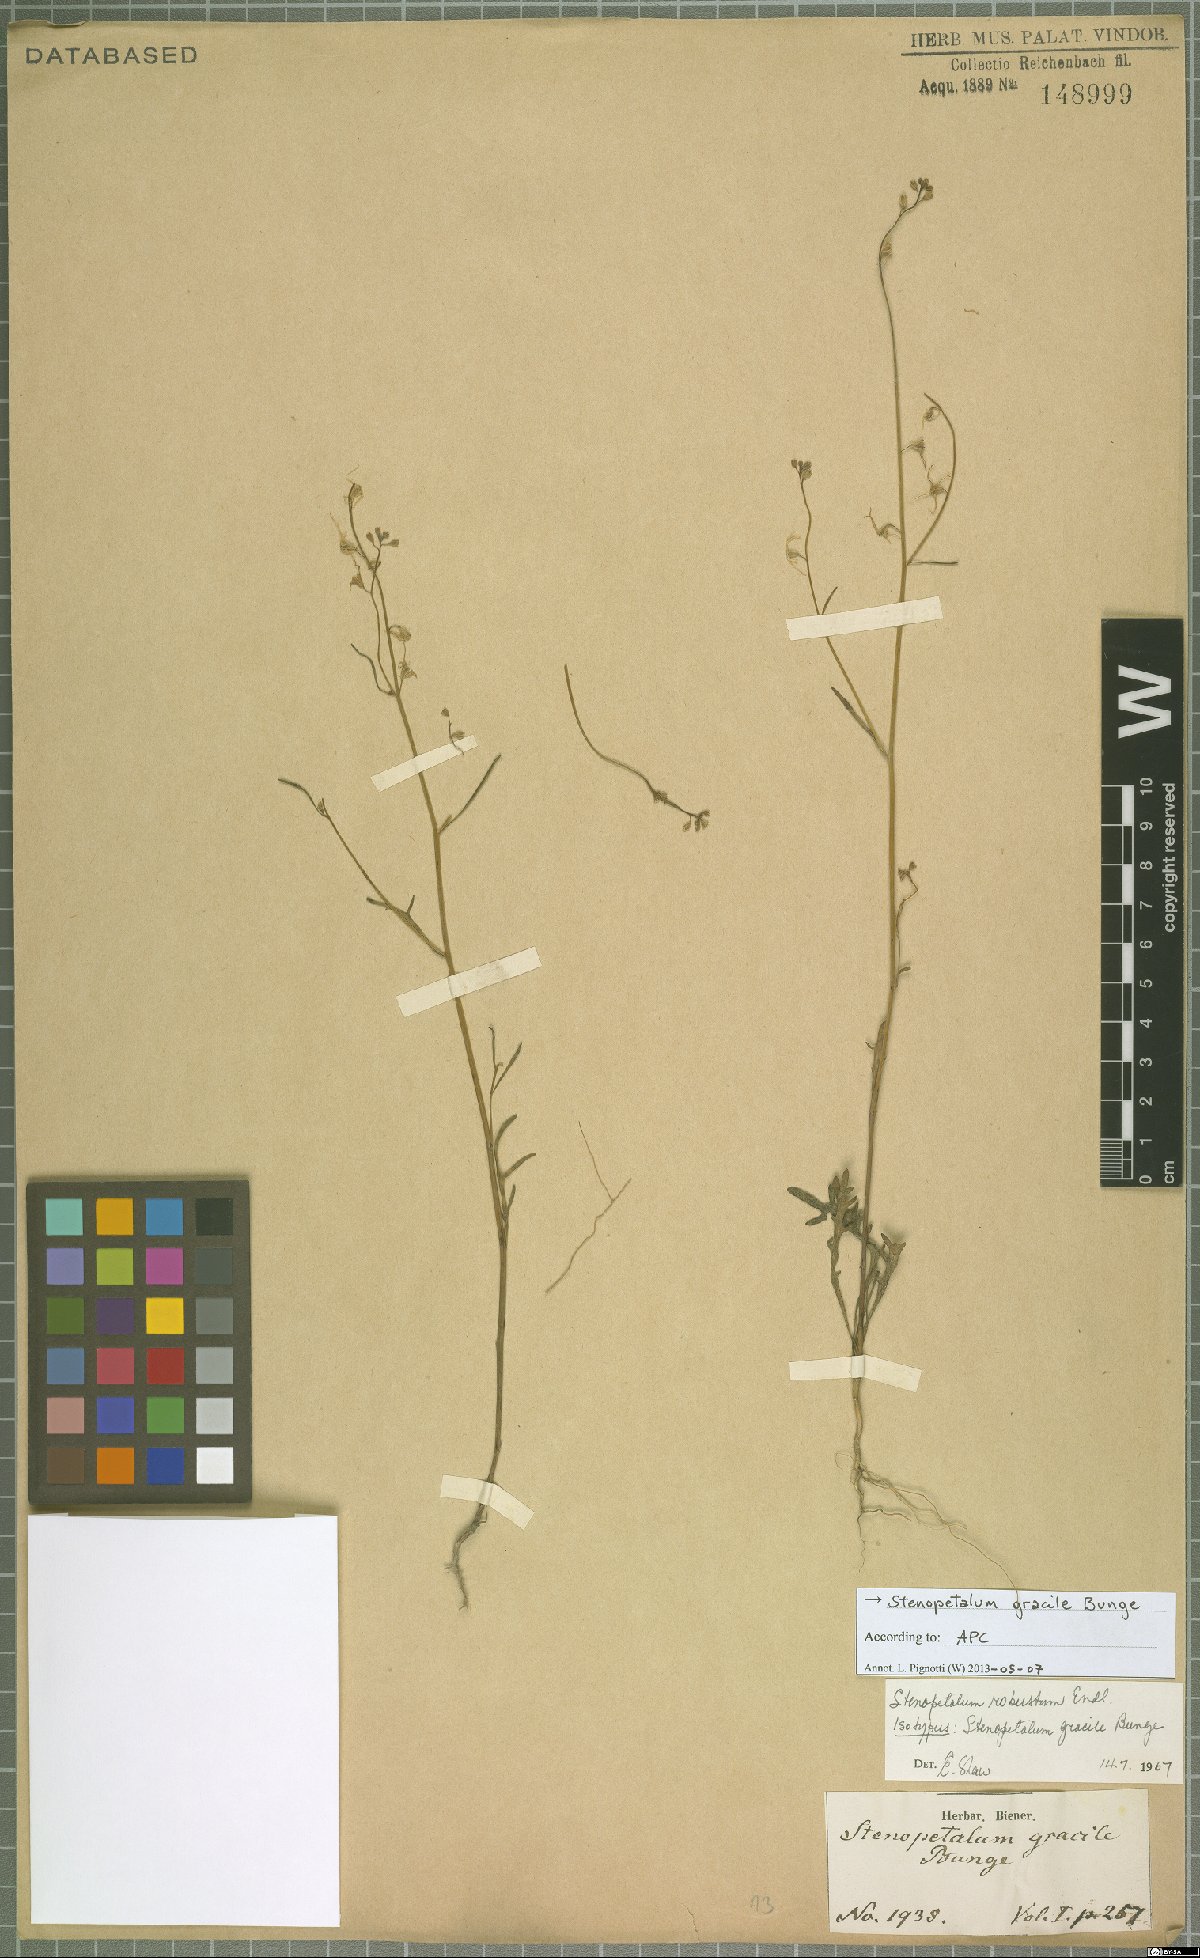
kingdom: Plantae
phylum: Tracheophyta
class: Magnoliopsida
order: Brassicales
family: Brassicaceae
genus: Stenopetalum
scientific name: Stenopetalum robustum
